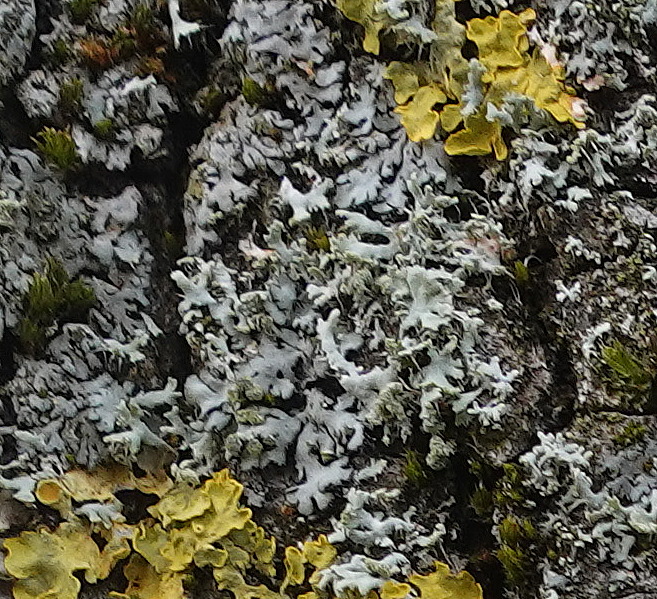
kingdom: Fungi
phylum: Ascomycota
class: Lecanoromycetes
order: Caliciales
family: Physciaceae
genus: Physcia
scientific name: Physcia tenella
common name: spæd rosetlav
